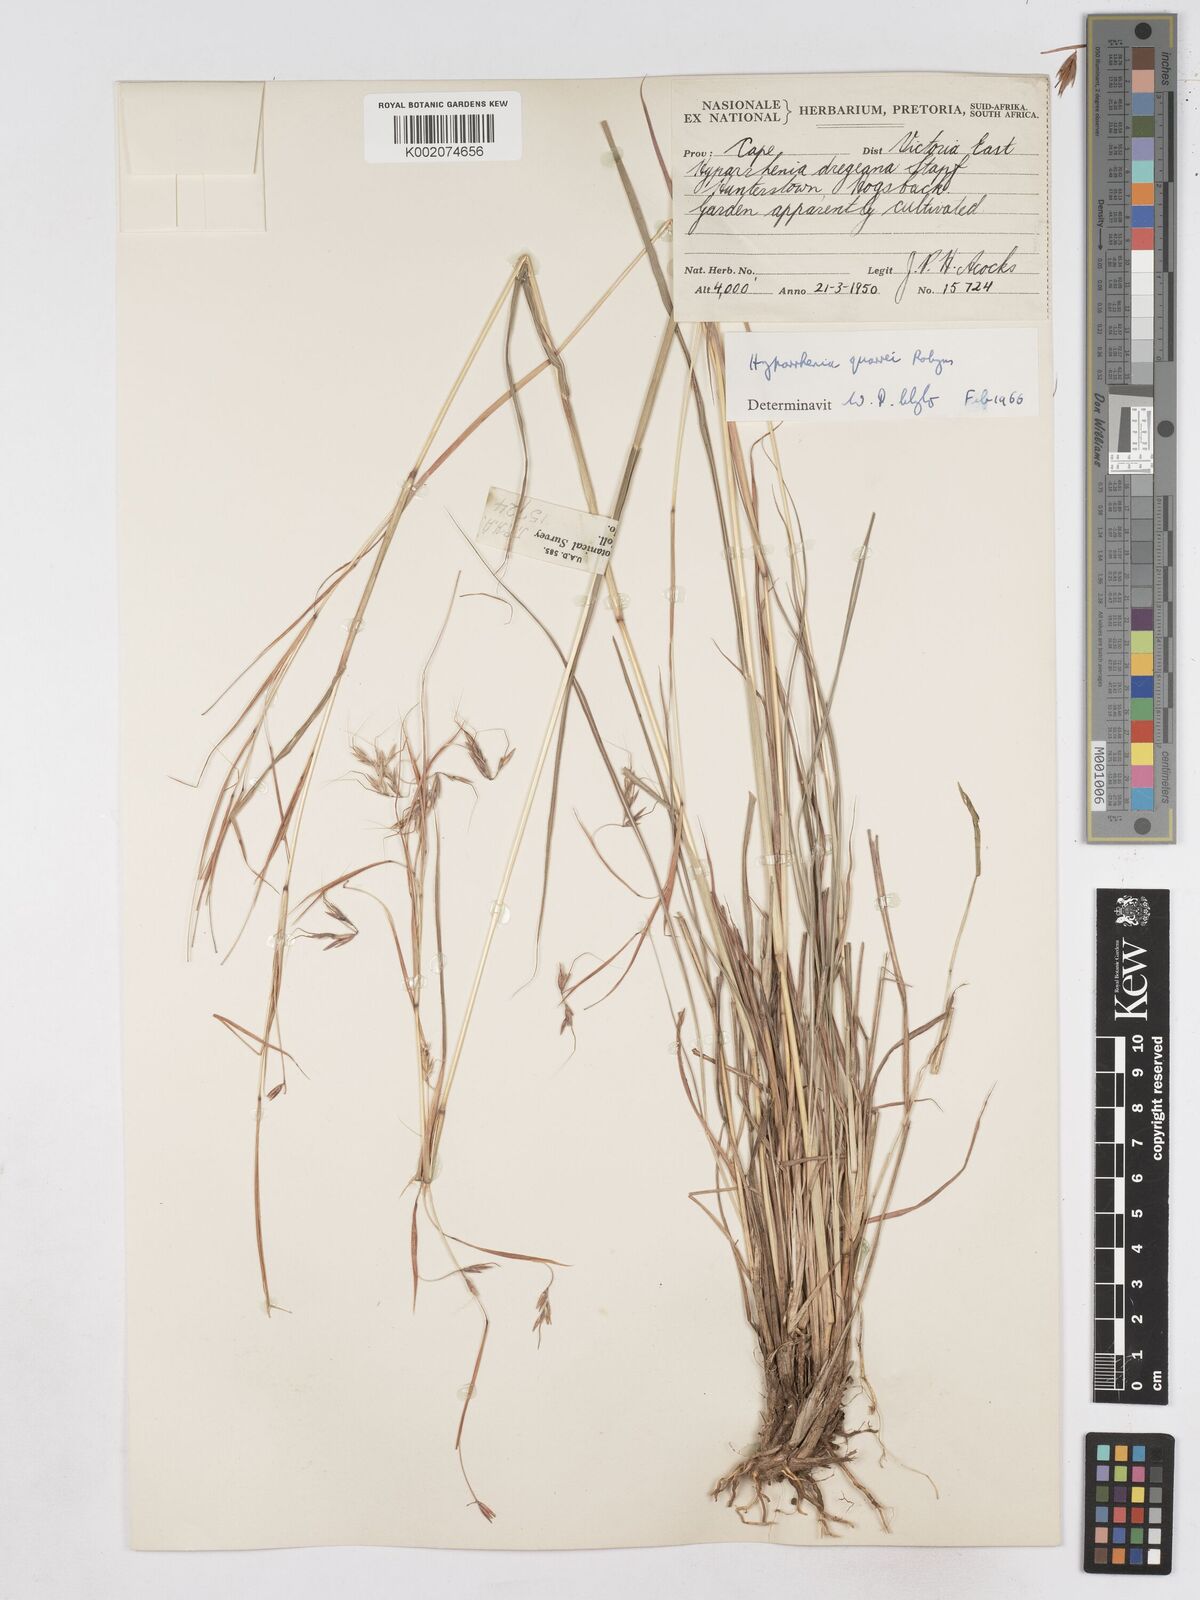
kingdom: Plantae
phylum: Tracheophyta
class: Liliopsida
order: Poales
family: Poaceae
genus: Hyparrhenia
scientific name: Hyparrhenia quarrei
